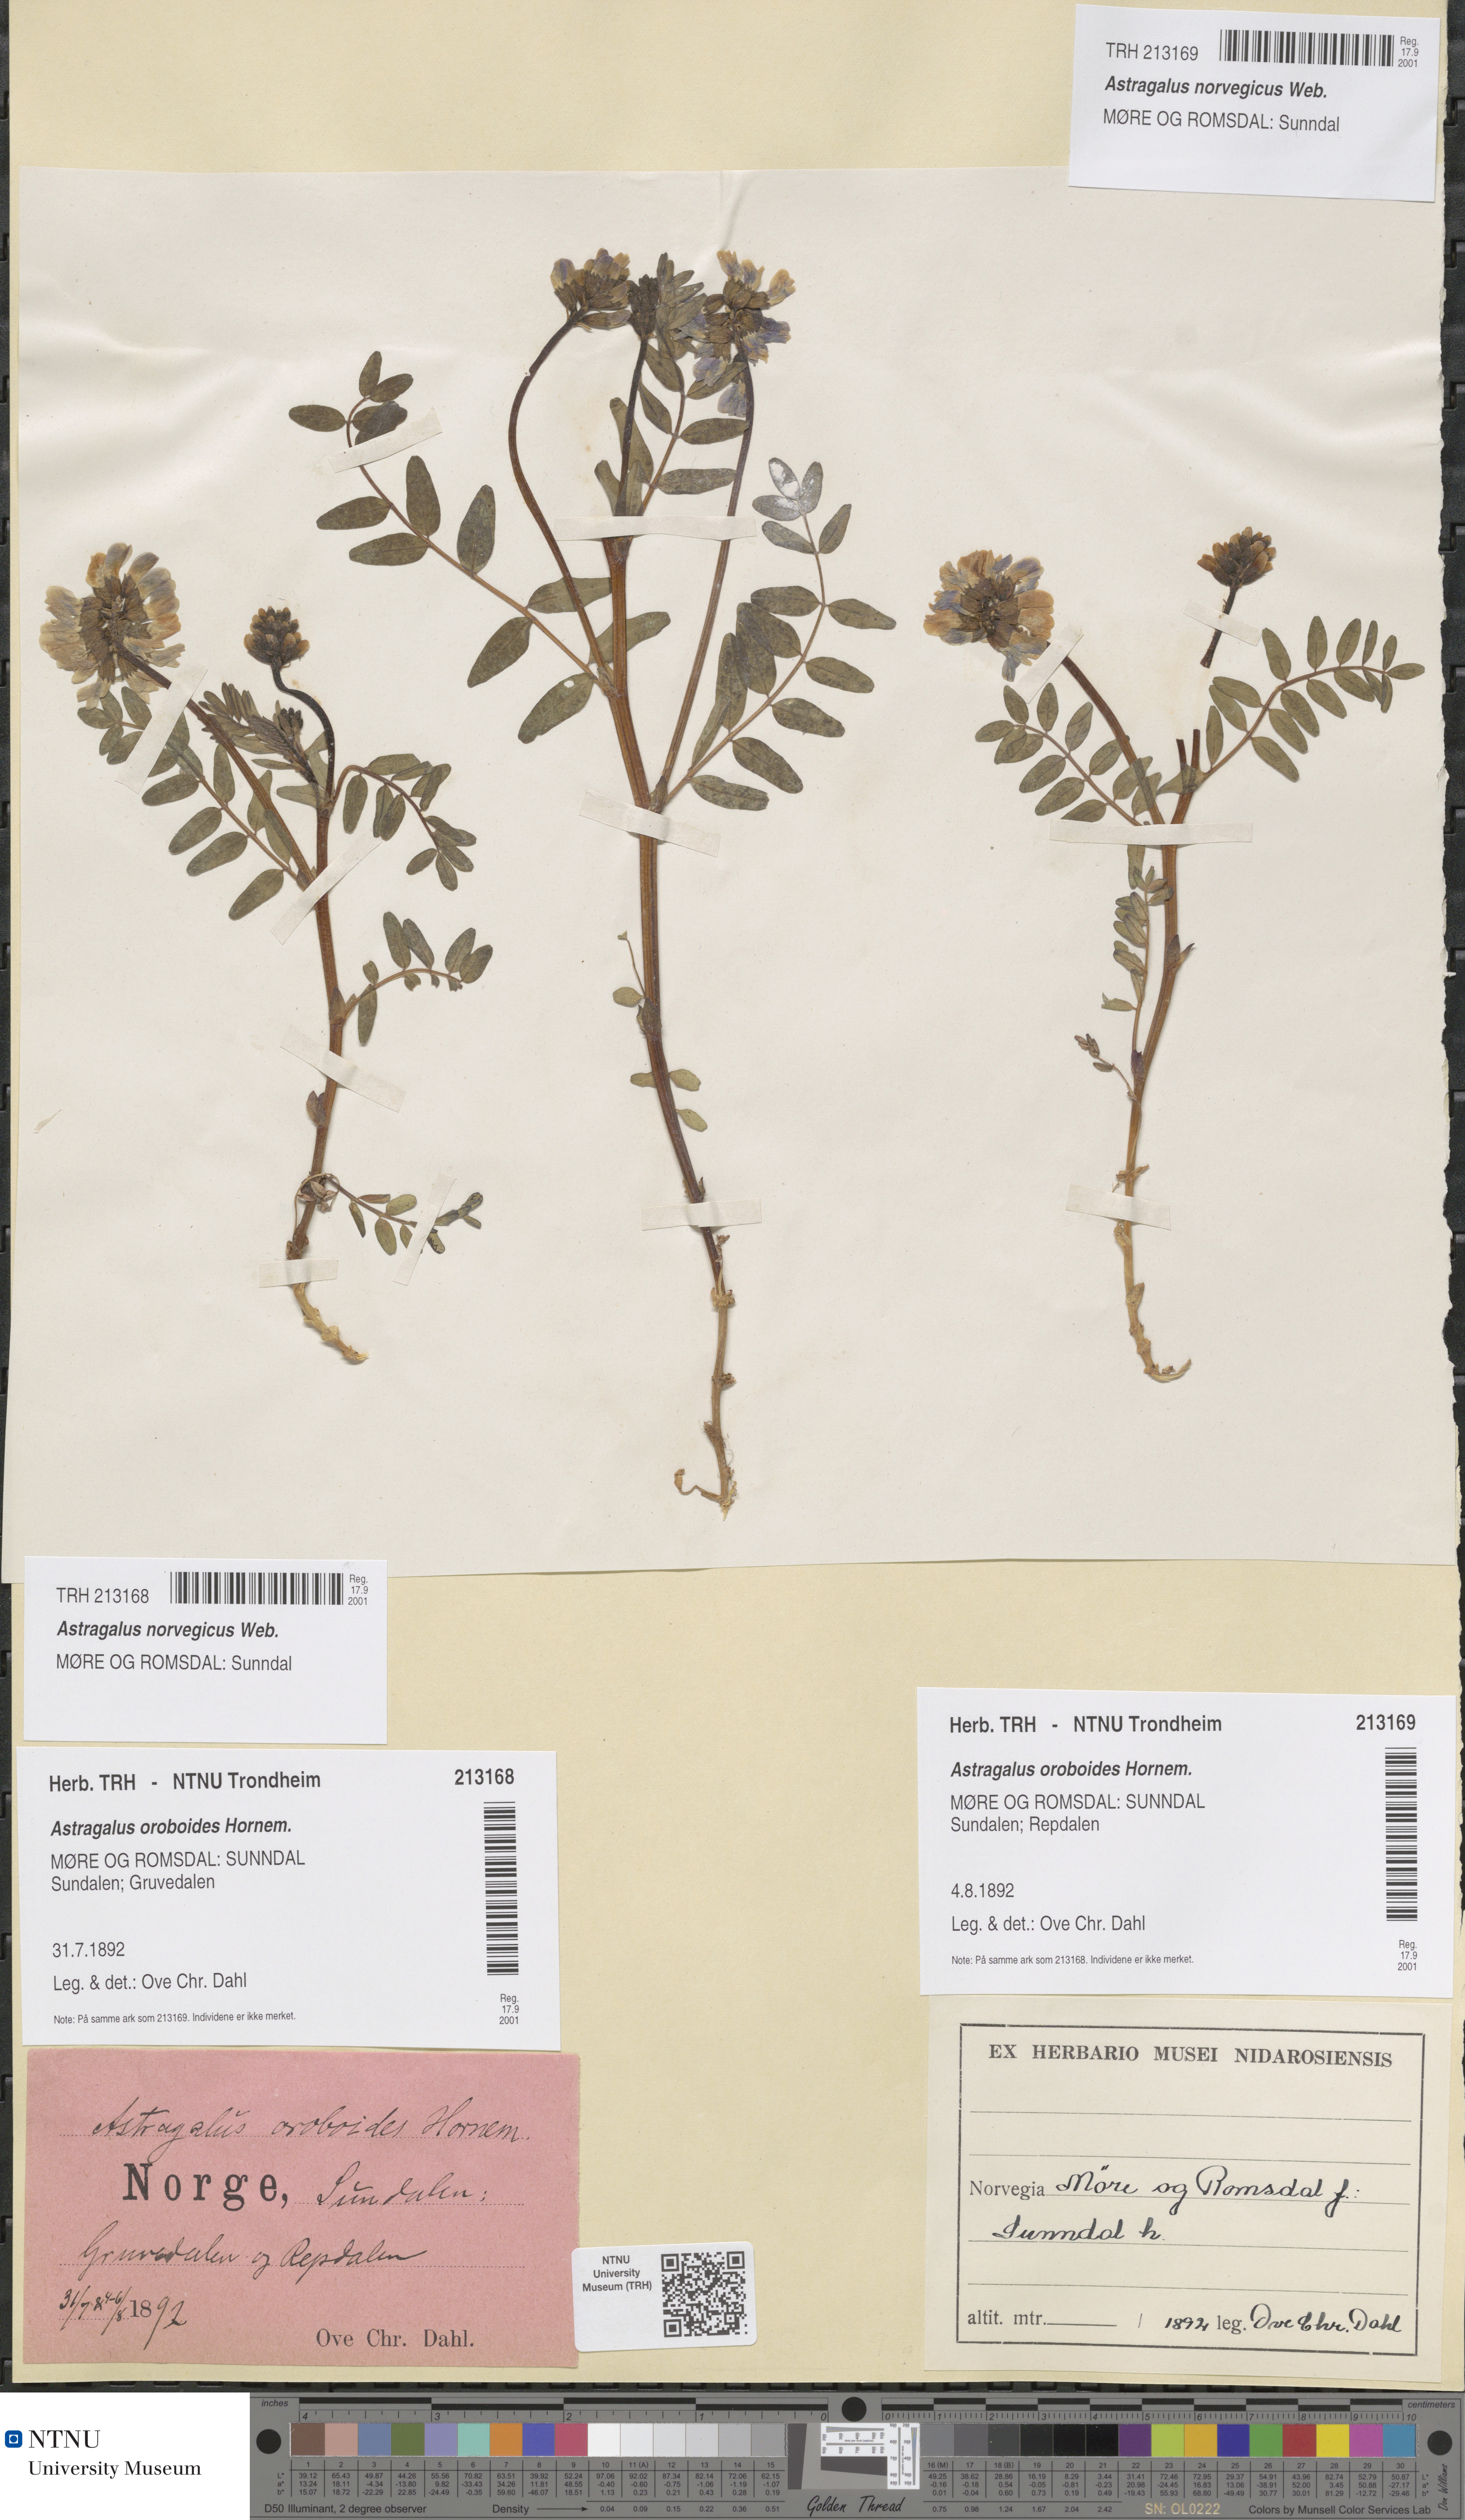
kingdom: Plantae
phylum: Tracheophyta
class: Magnoliopsida
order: Fabales
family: Fabaceae
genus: Astragalus
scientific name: Astragalus norvegicus
